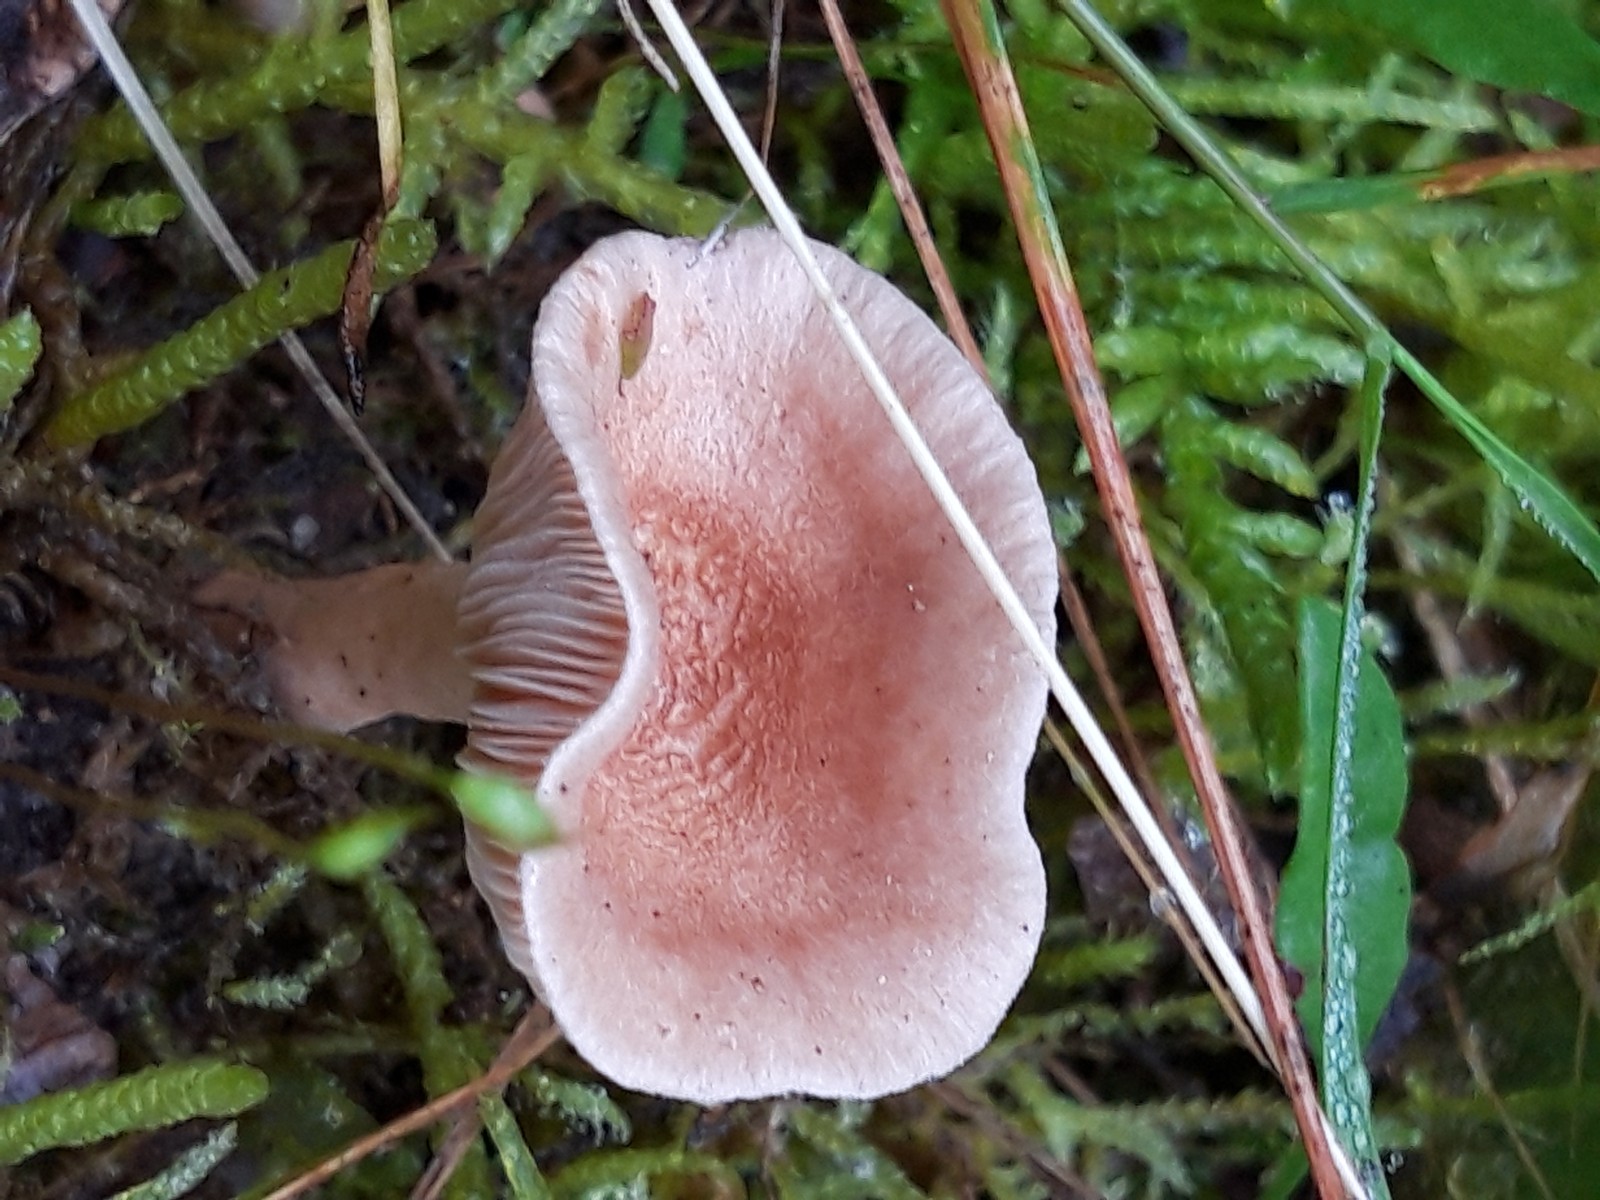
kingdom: Fungi
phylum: Basidiomycota
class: Agaricomycetes
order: Russulales
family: Russulaceae
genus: Lactarius
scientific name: Lactarius glyciosmus
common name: kokos-mælkehat
